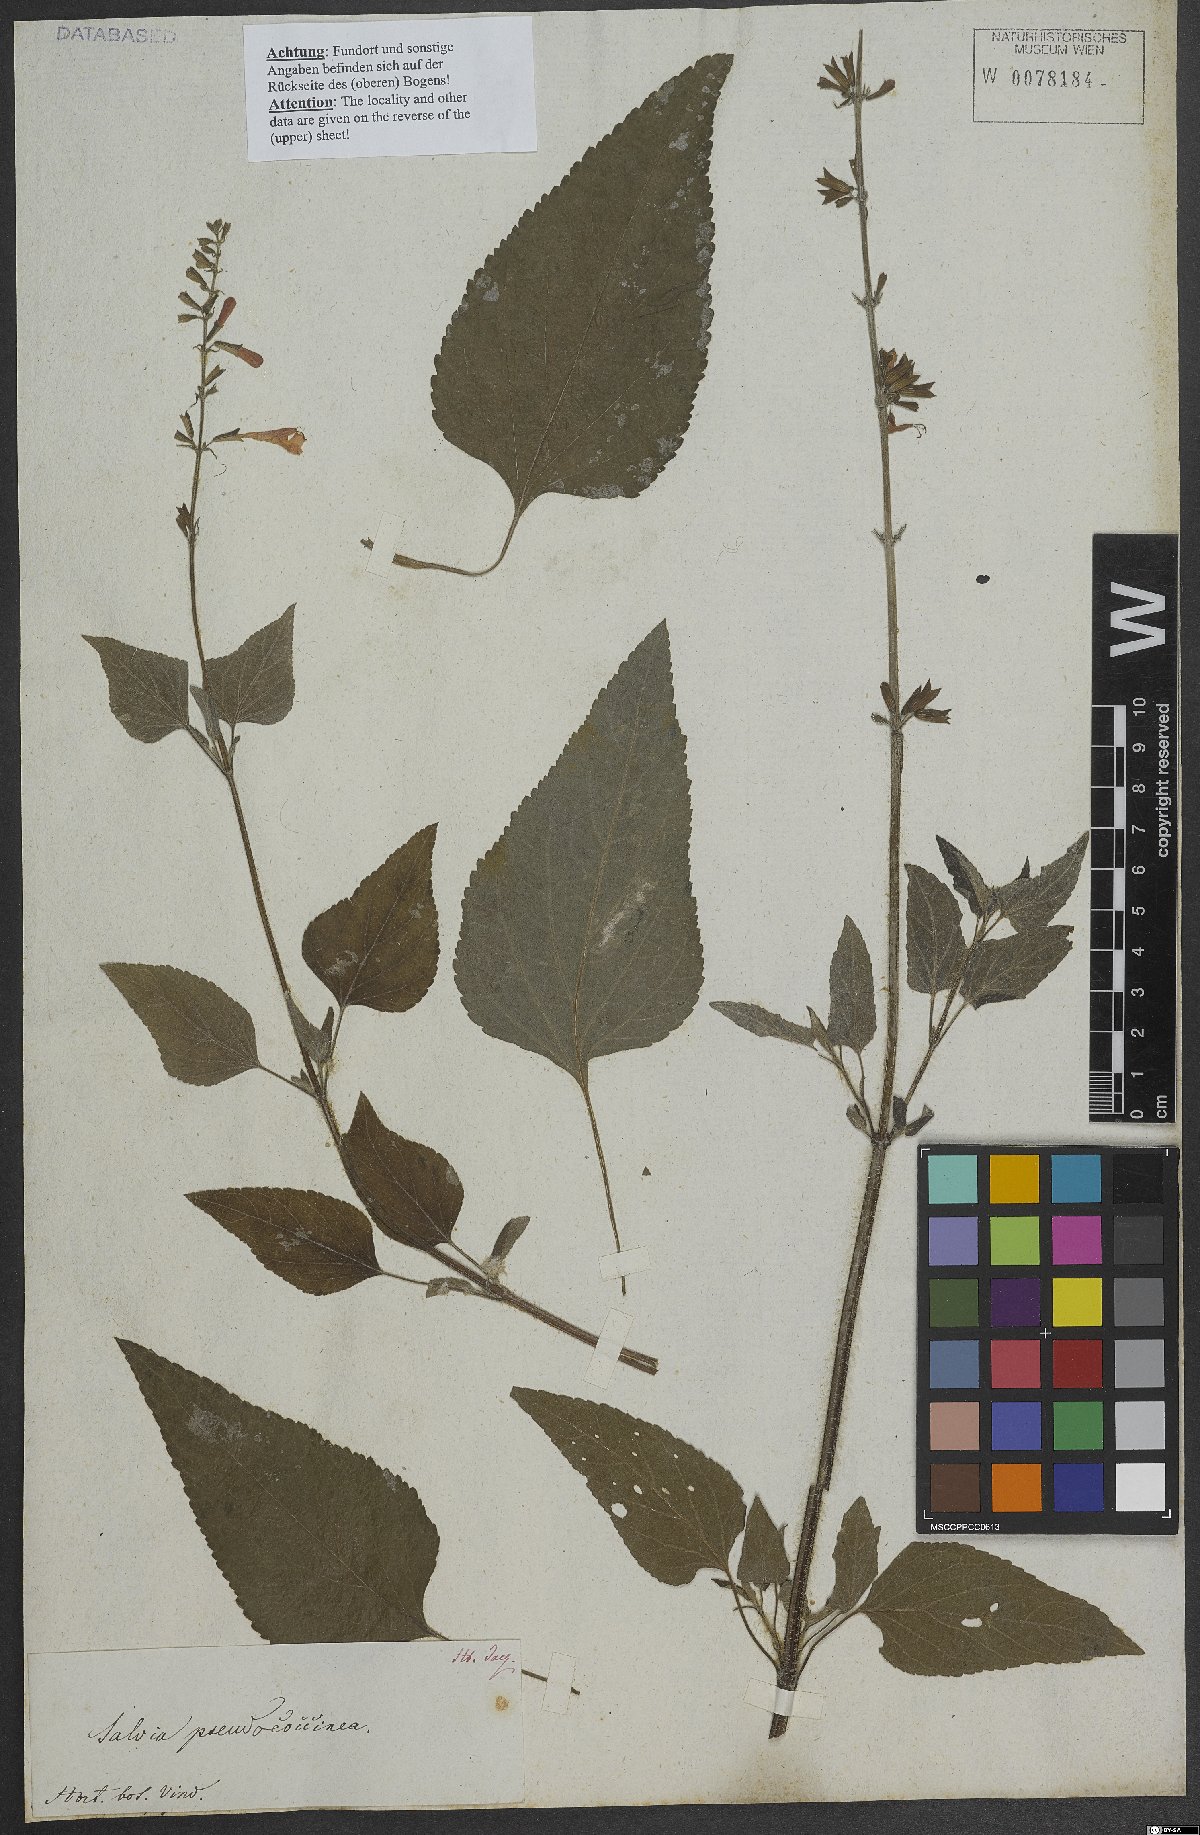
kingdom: Plantae
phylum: Tracheophyta
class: Magnoliopsida
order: Lamiales
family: Lamiaceae
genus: Salvia
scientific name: Salvia coccinea
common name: Blood sage
